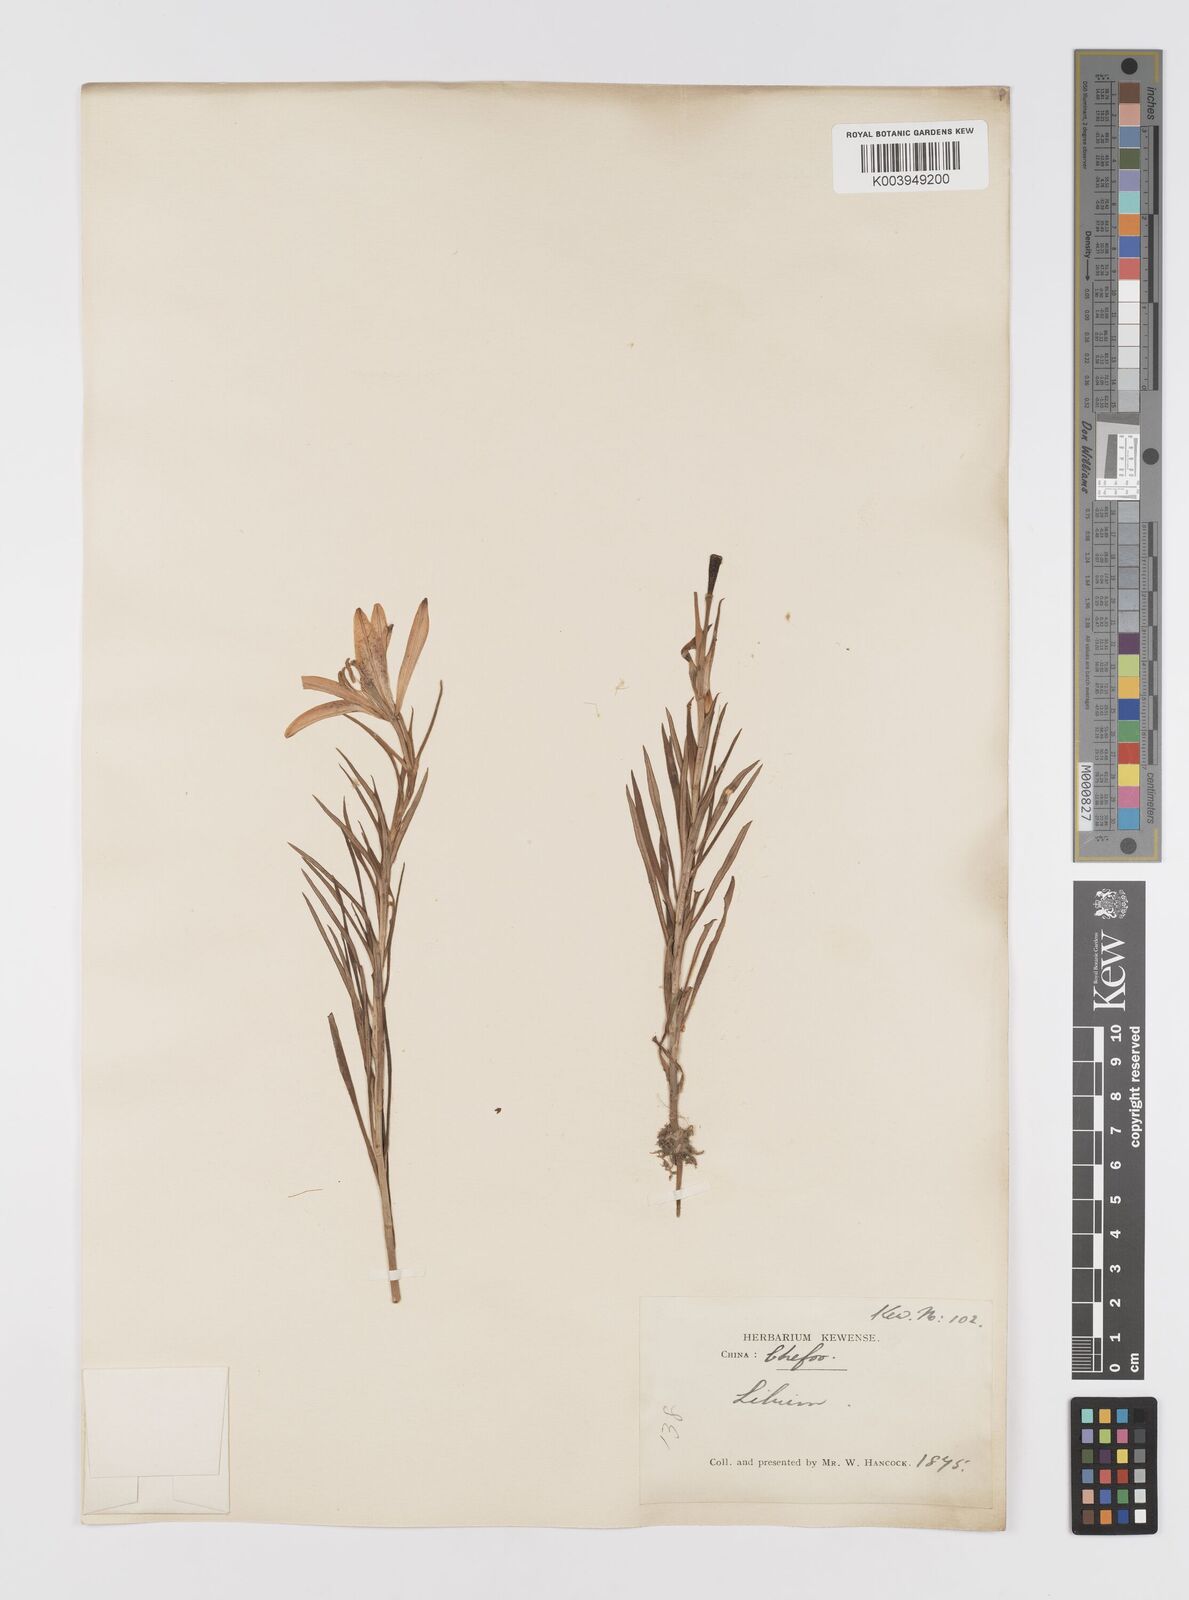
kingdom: Plantae
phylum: Tracheophyta
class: Liliopsida
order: Liliales
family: Liliaceae
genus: Lilium
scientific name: Lilium concolor
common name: Morning-star lily
